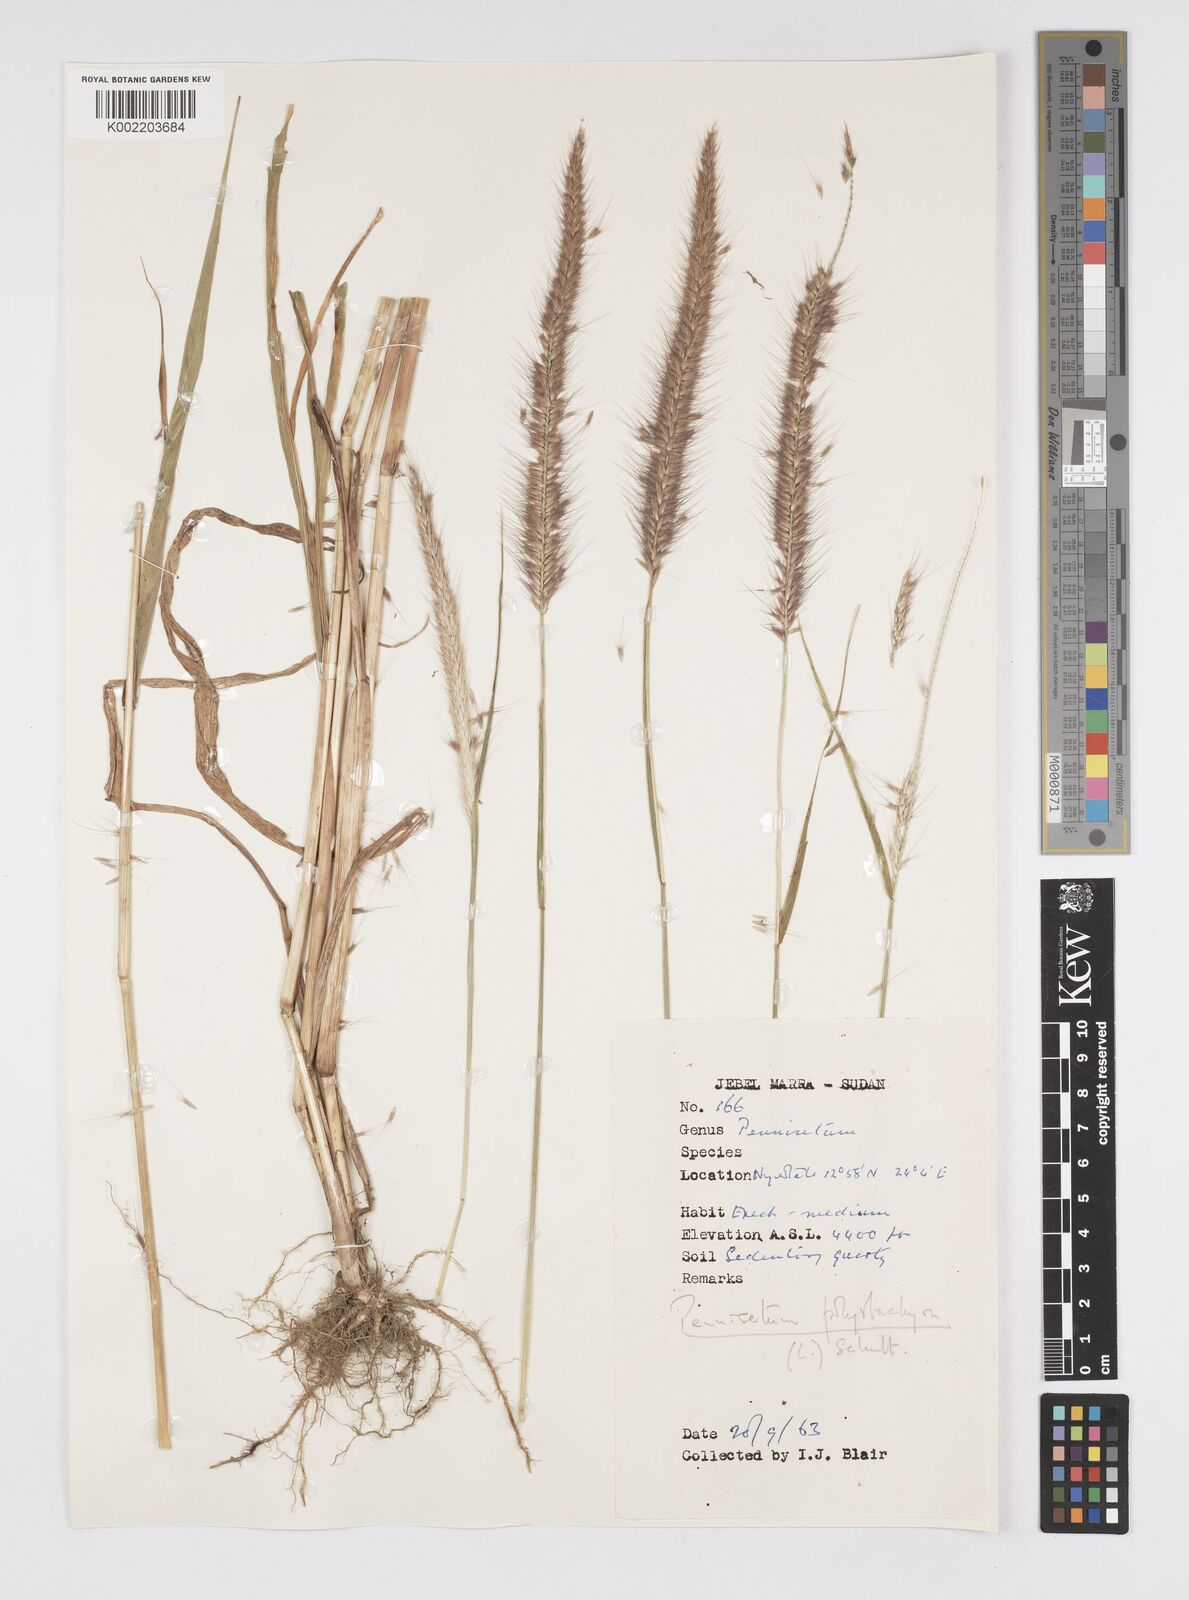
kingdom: Plantae
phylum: Tracheophyta
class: Liliopsida
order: Poales
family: Poaceae
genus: Setaria
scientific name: Setaria parviflora
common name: Knotroot bristle-grass
